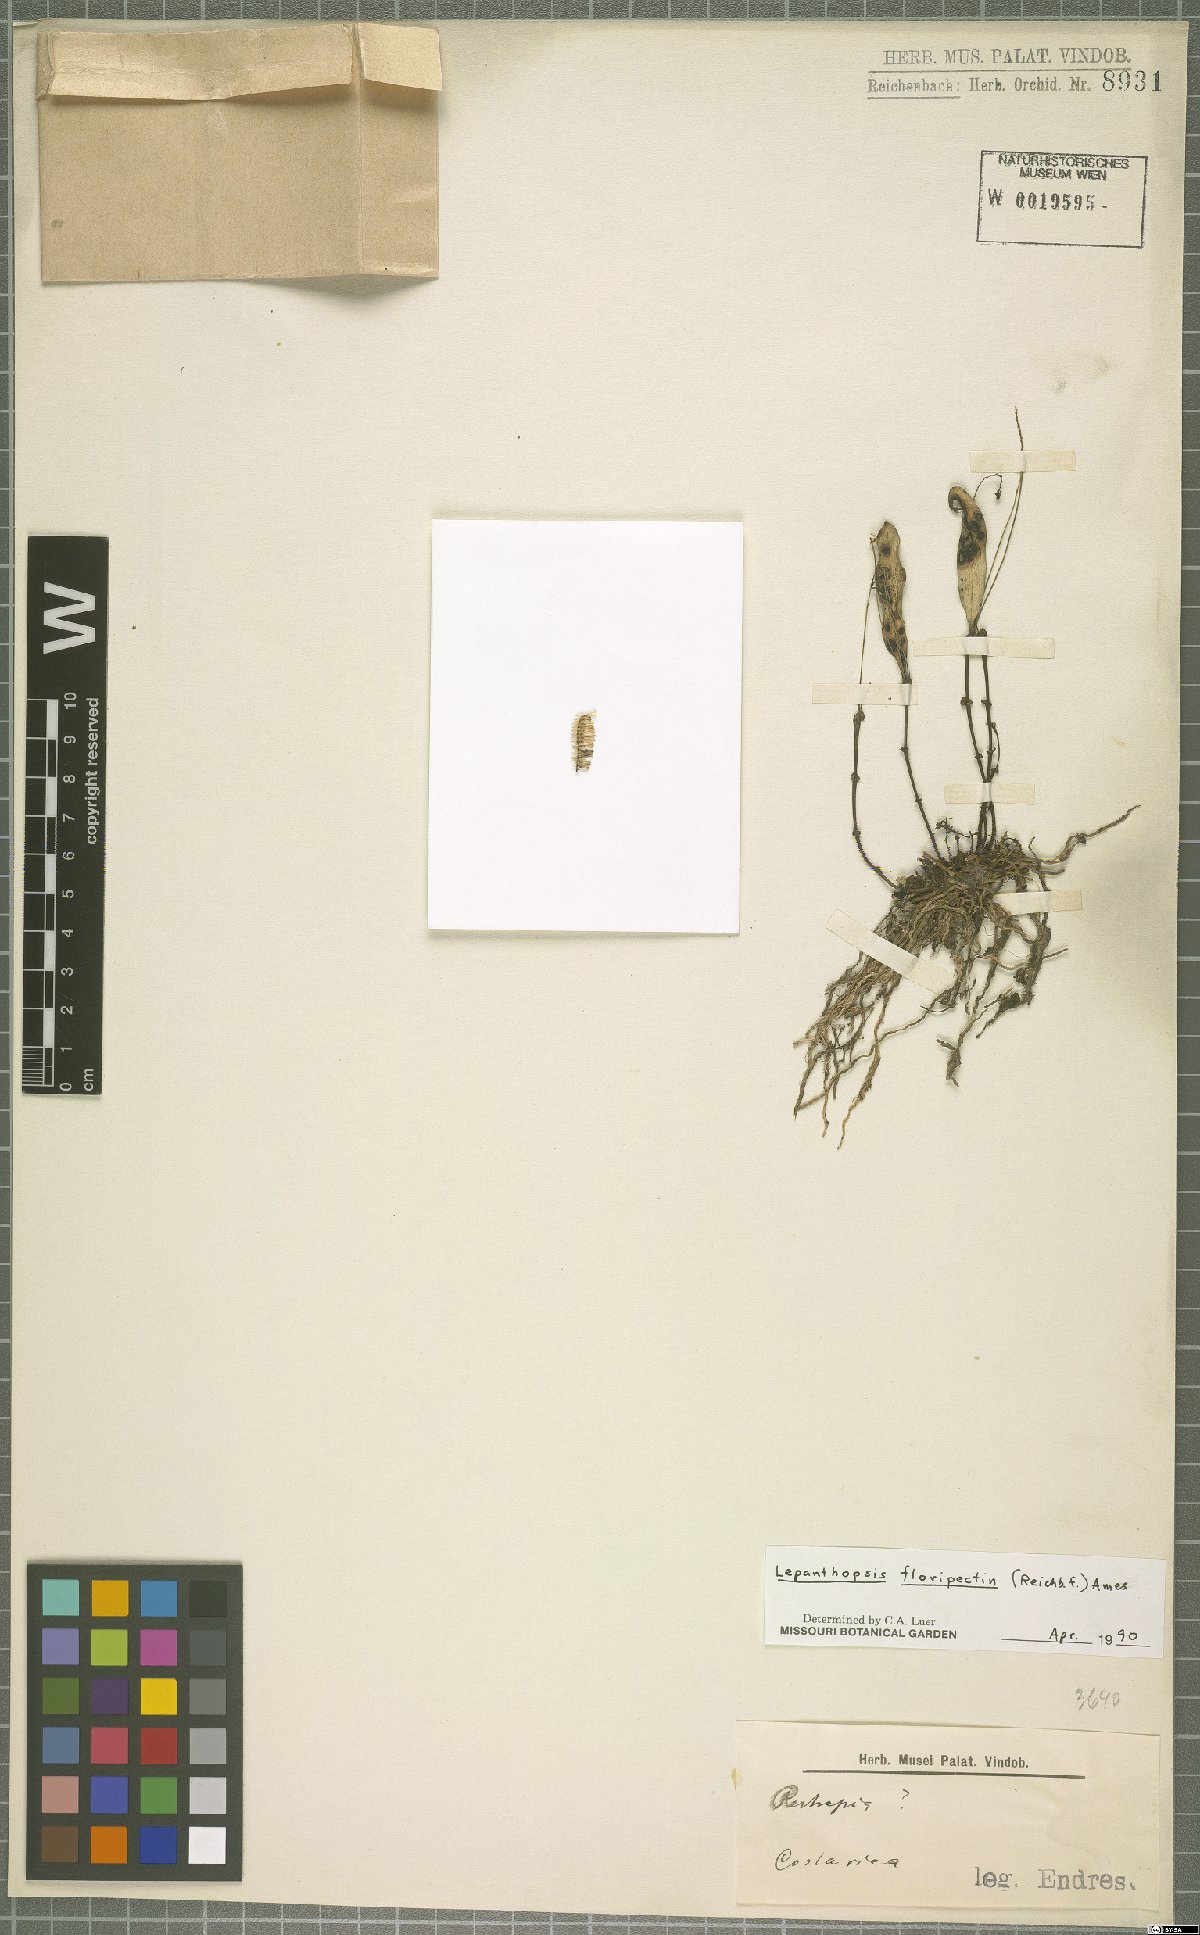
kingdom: Plantae
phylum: Tracheophyta
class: Liliopsida
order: Asparagales
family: Orchidaceae
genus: Lepanthopsis
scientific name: Lepanthopsis floripecten
